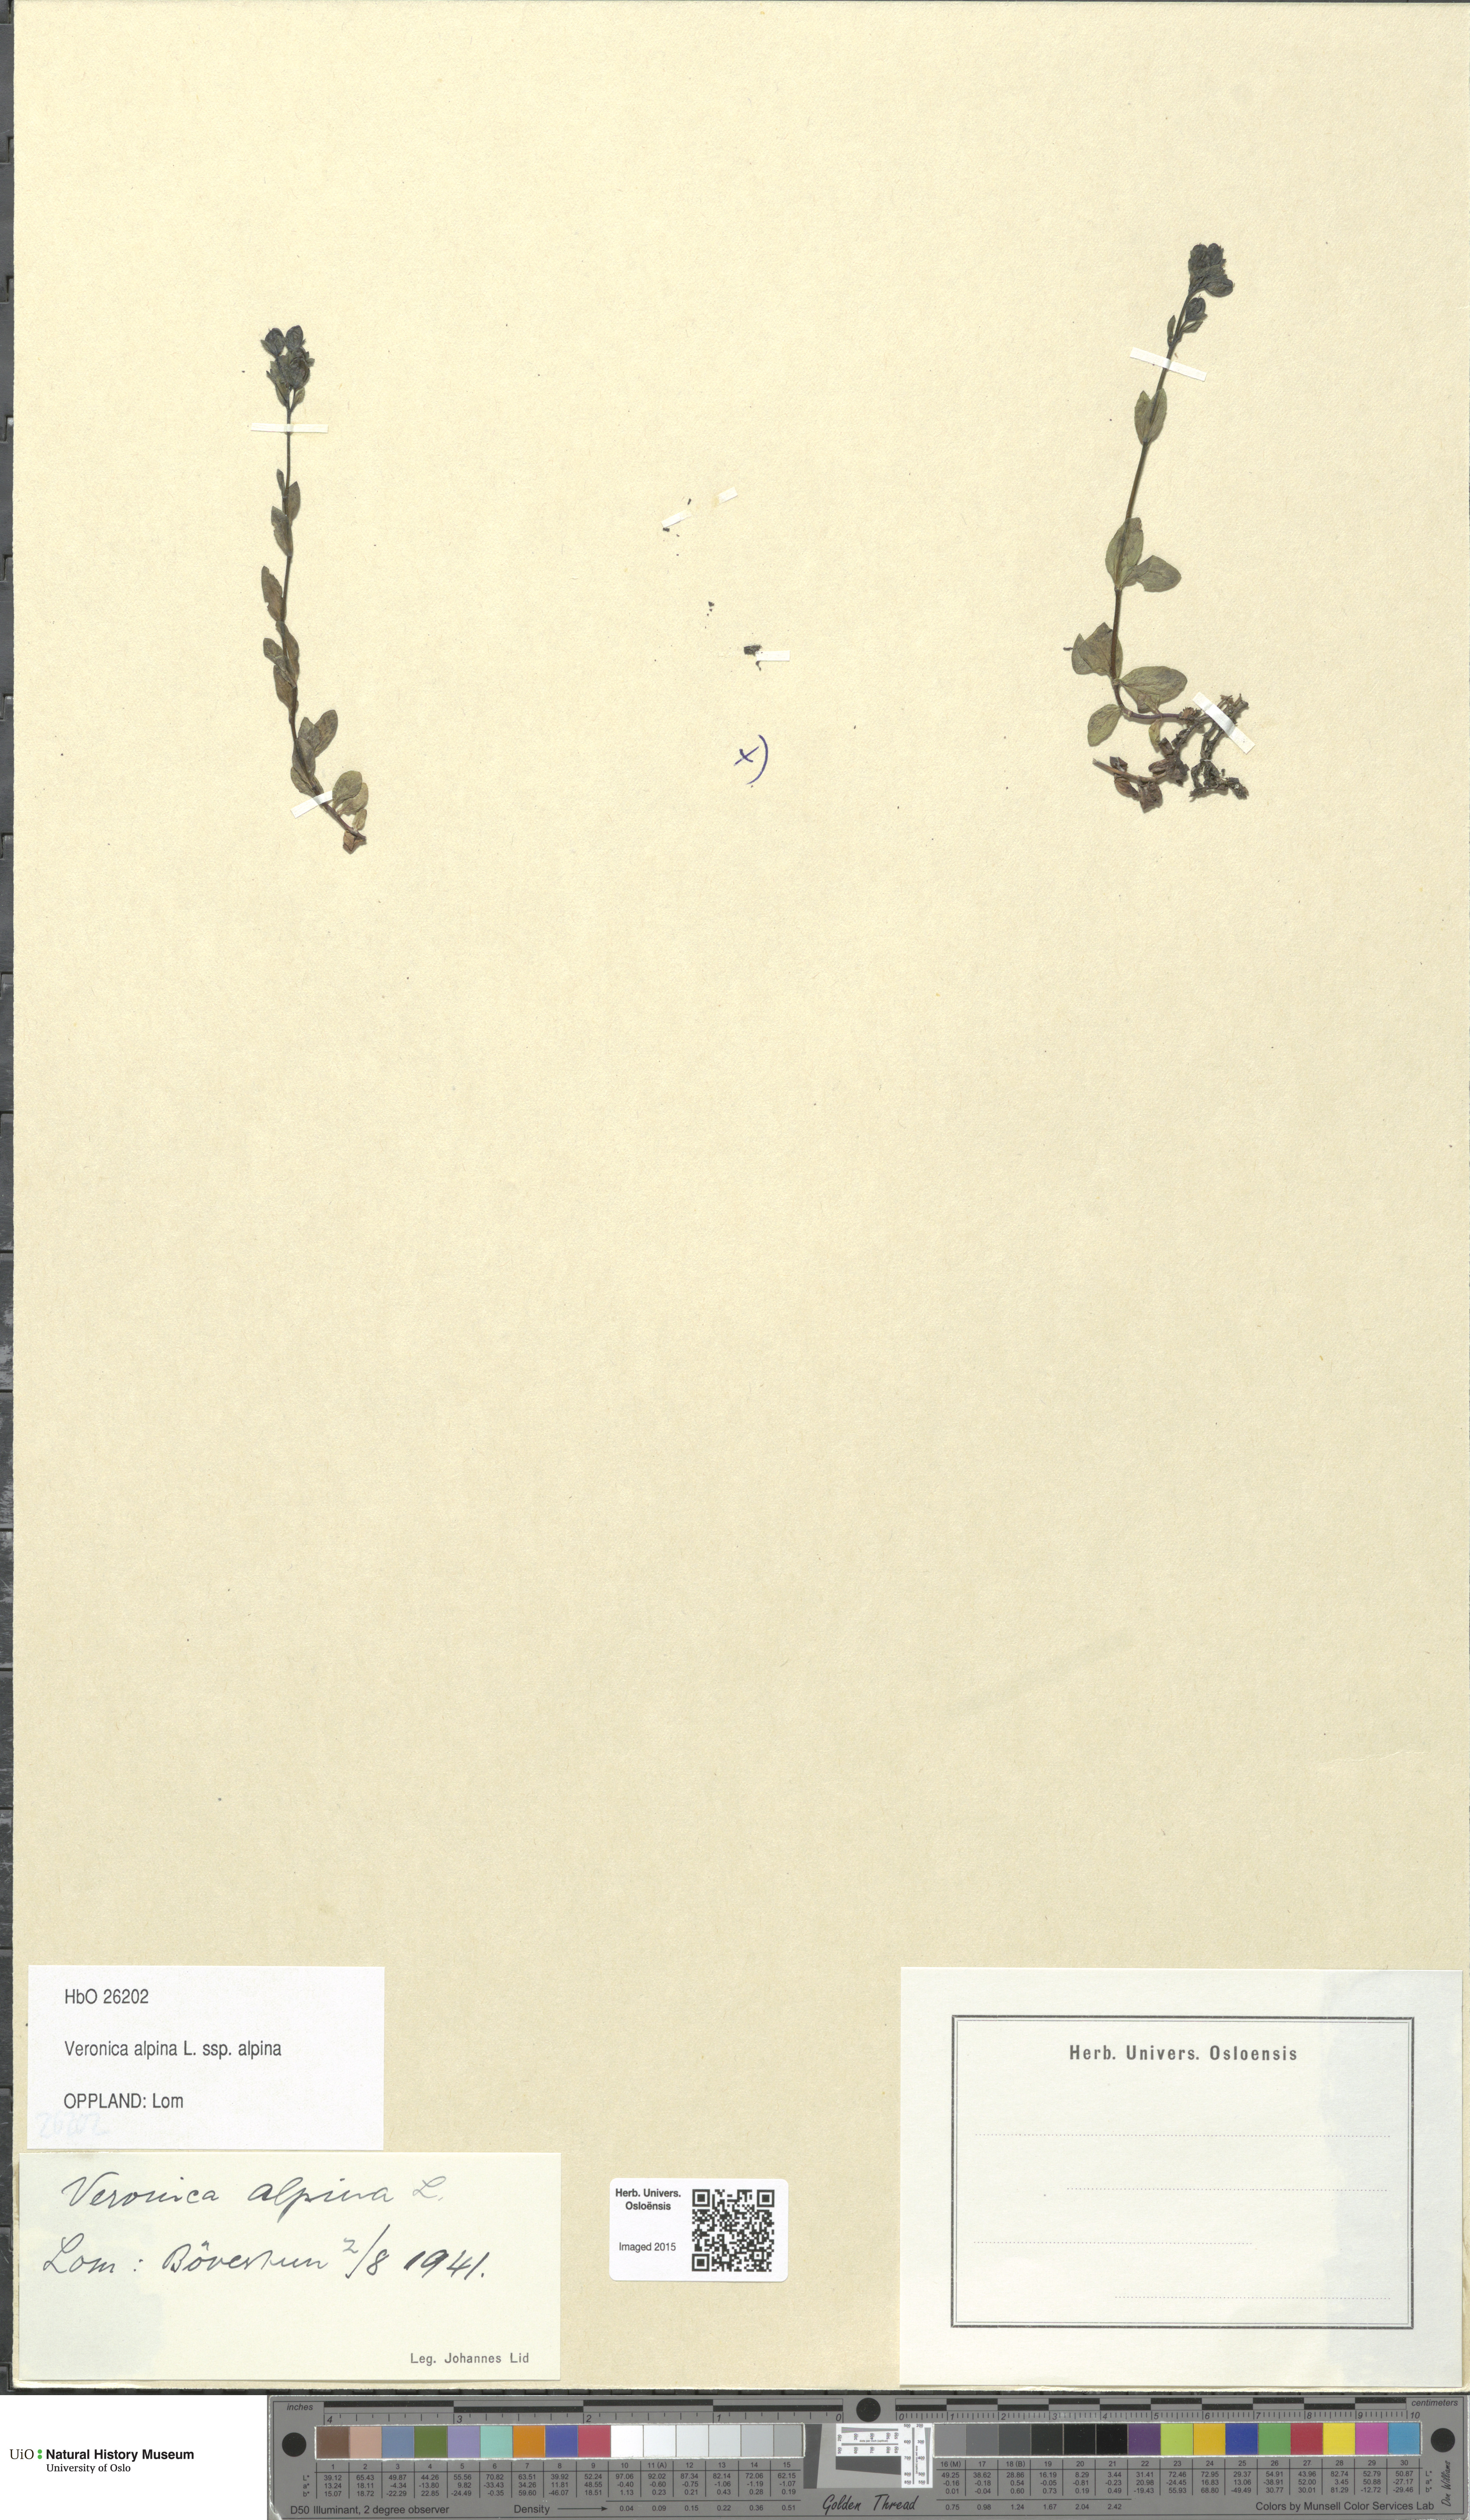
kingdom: Plantae
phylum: Tracheophyta
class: Magnoliopsida
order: Lamiales
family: Plantaginaceae
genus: Veronica
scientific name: Veronica alpina
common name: Alpine speedwell
